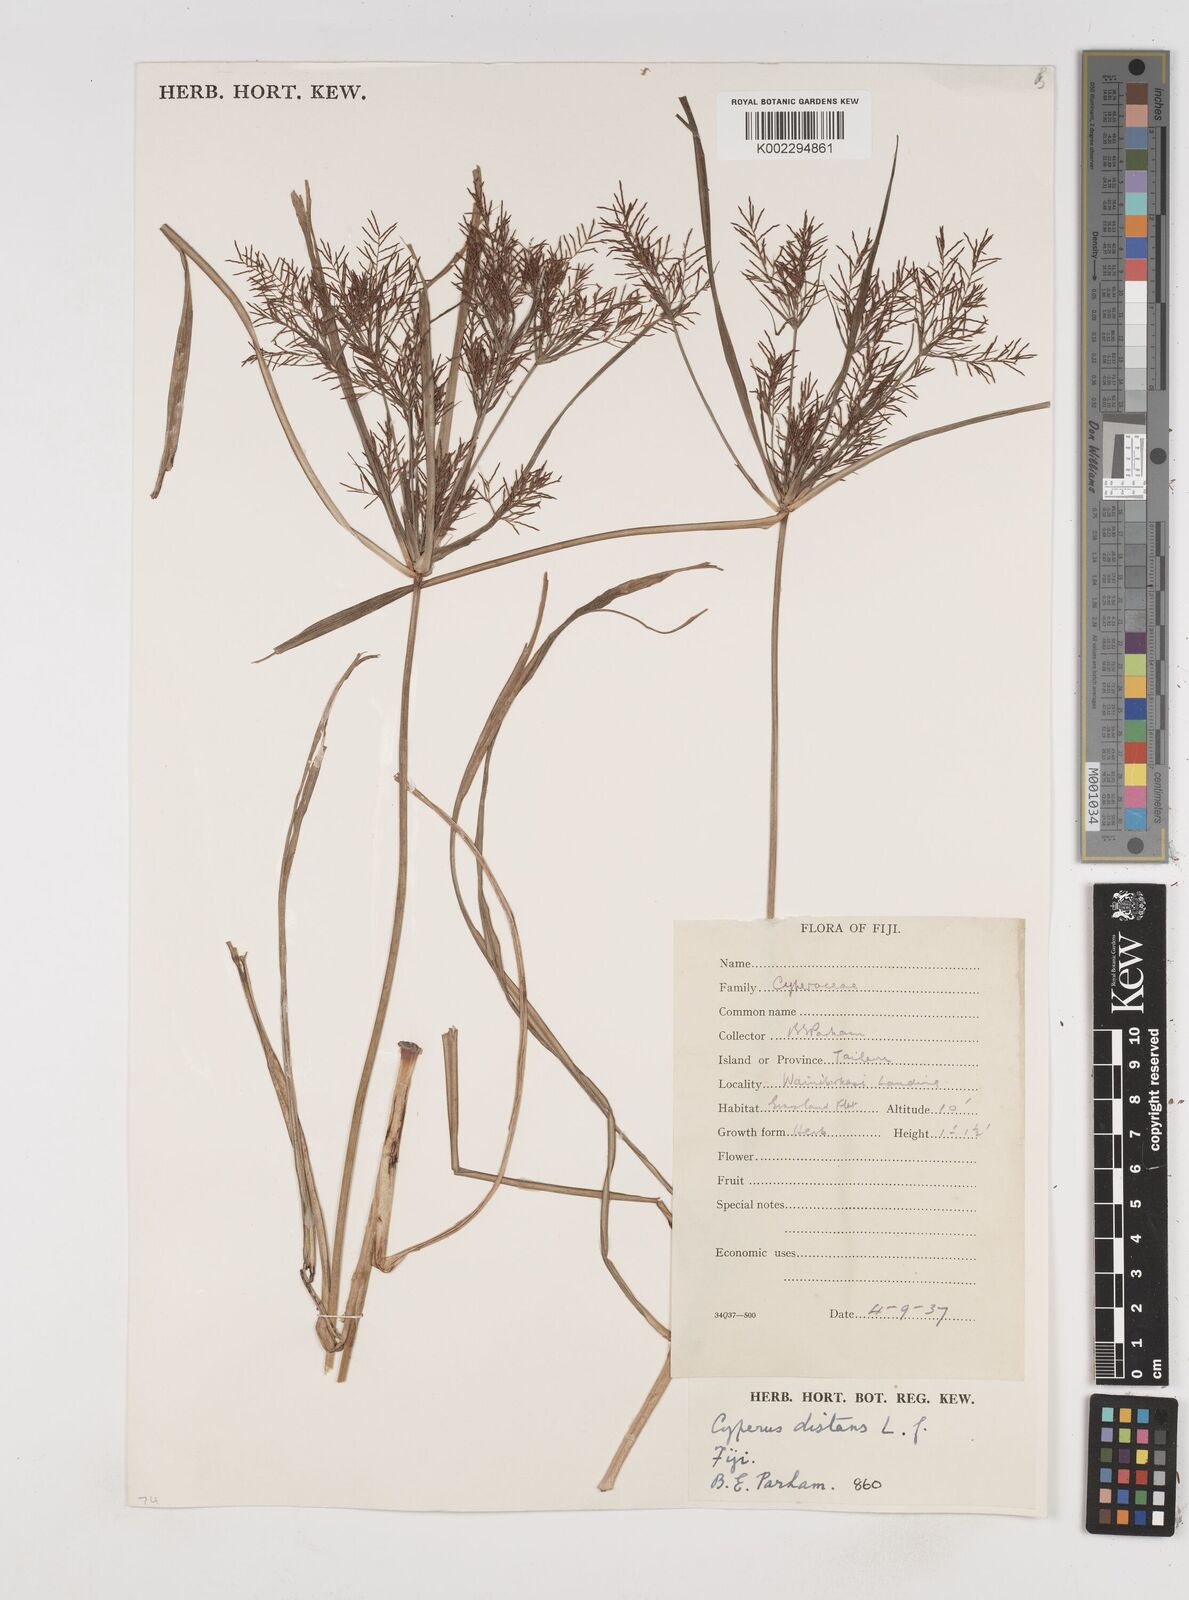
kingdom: Plantae
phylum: Tracheophyta
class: Liliopsida
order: Poales
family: Cyperaceae
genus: Cyperus
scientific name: Cyperus distans
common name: Slender cyperus
